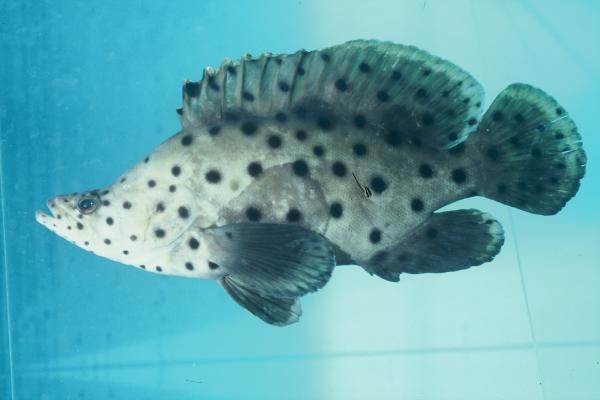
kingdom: Animalia
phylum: Chordata
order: Perciformes
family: Serranidae
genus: Cromileptes
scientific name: Cromileptes altivelis
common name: Humpback grouper
